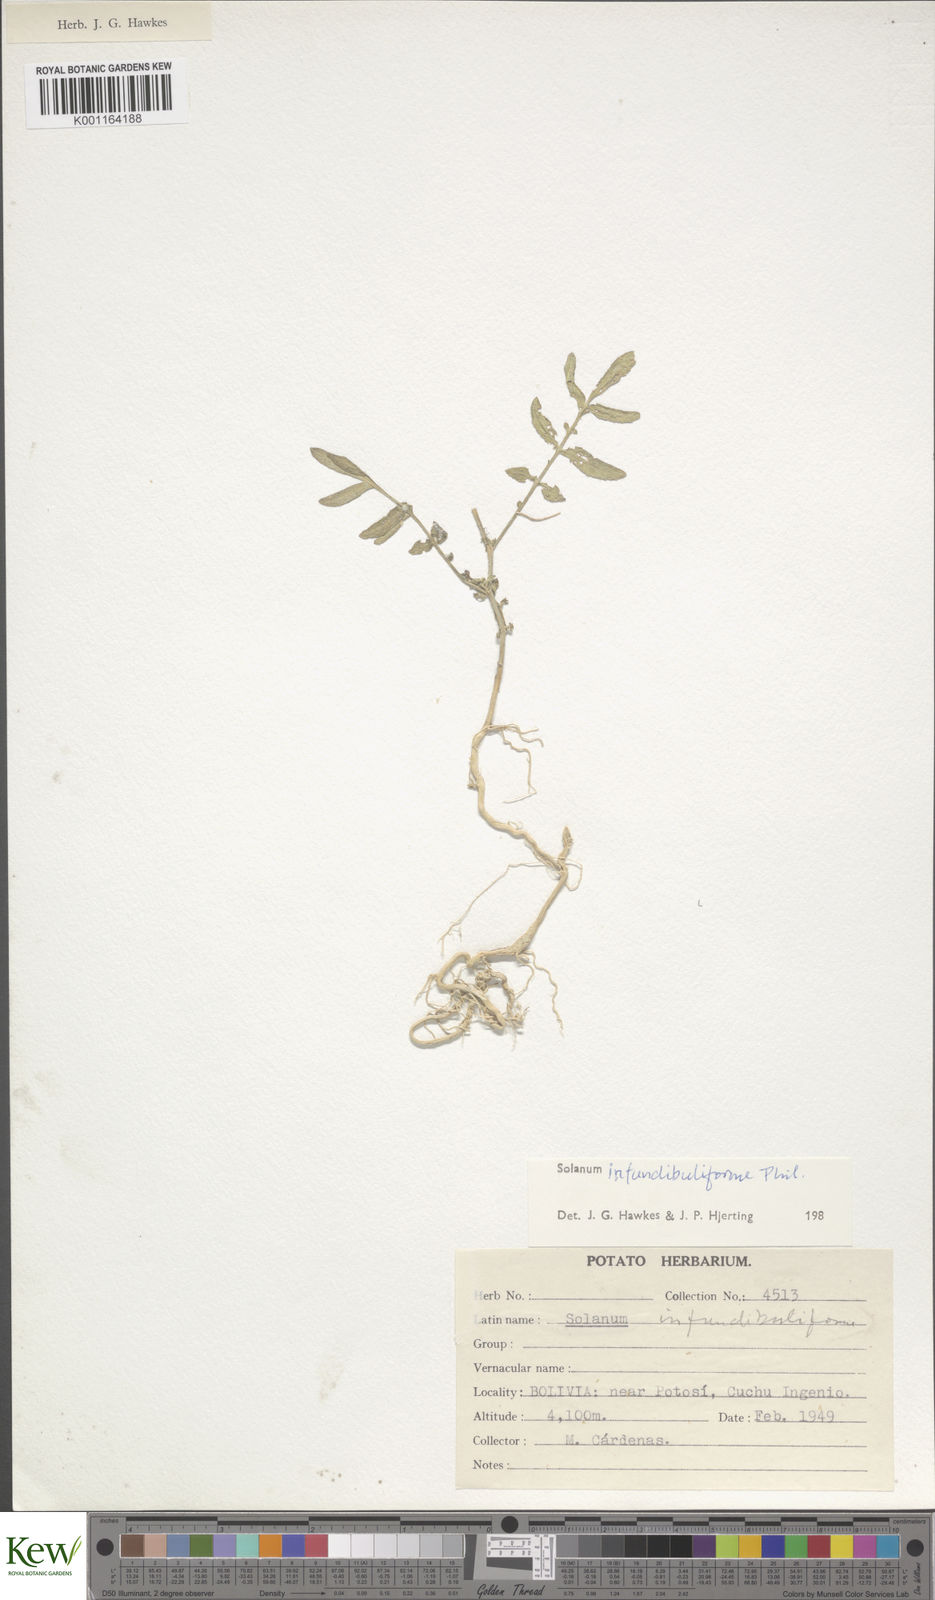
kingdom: Plantae
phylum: Tracheophyta
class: Magnoliopsida
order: Solanales
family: Solanaceae
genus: Solanum
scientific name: Solanum infundibuliforme
